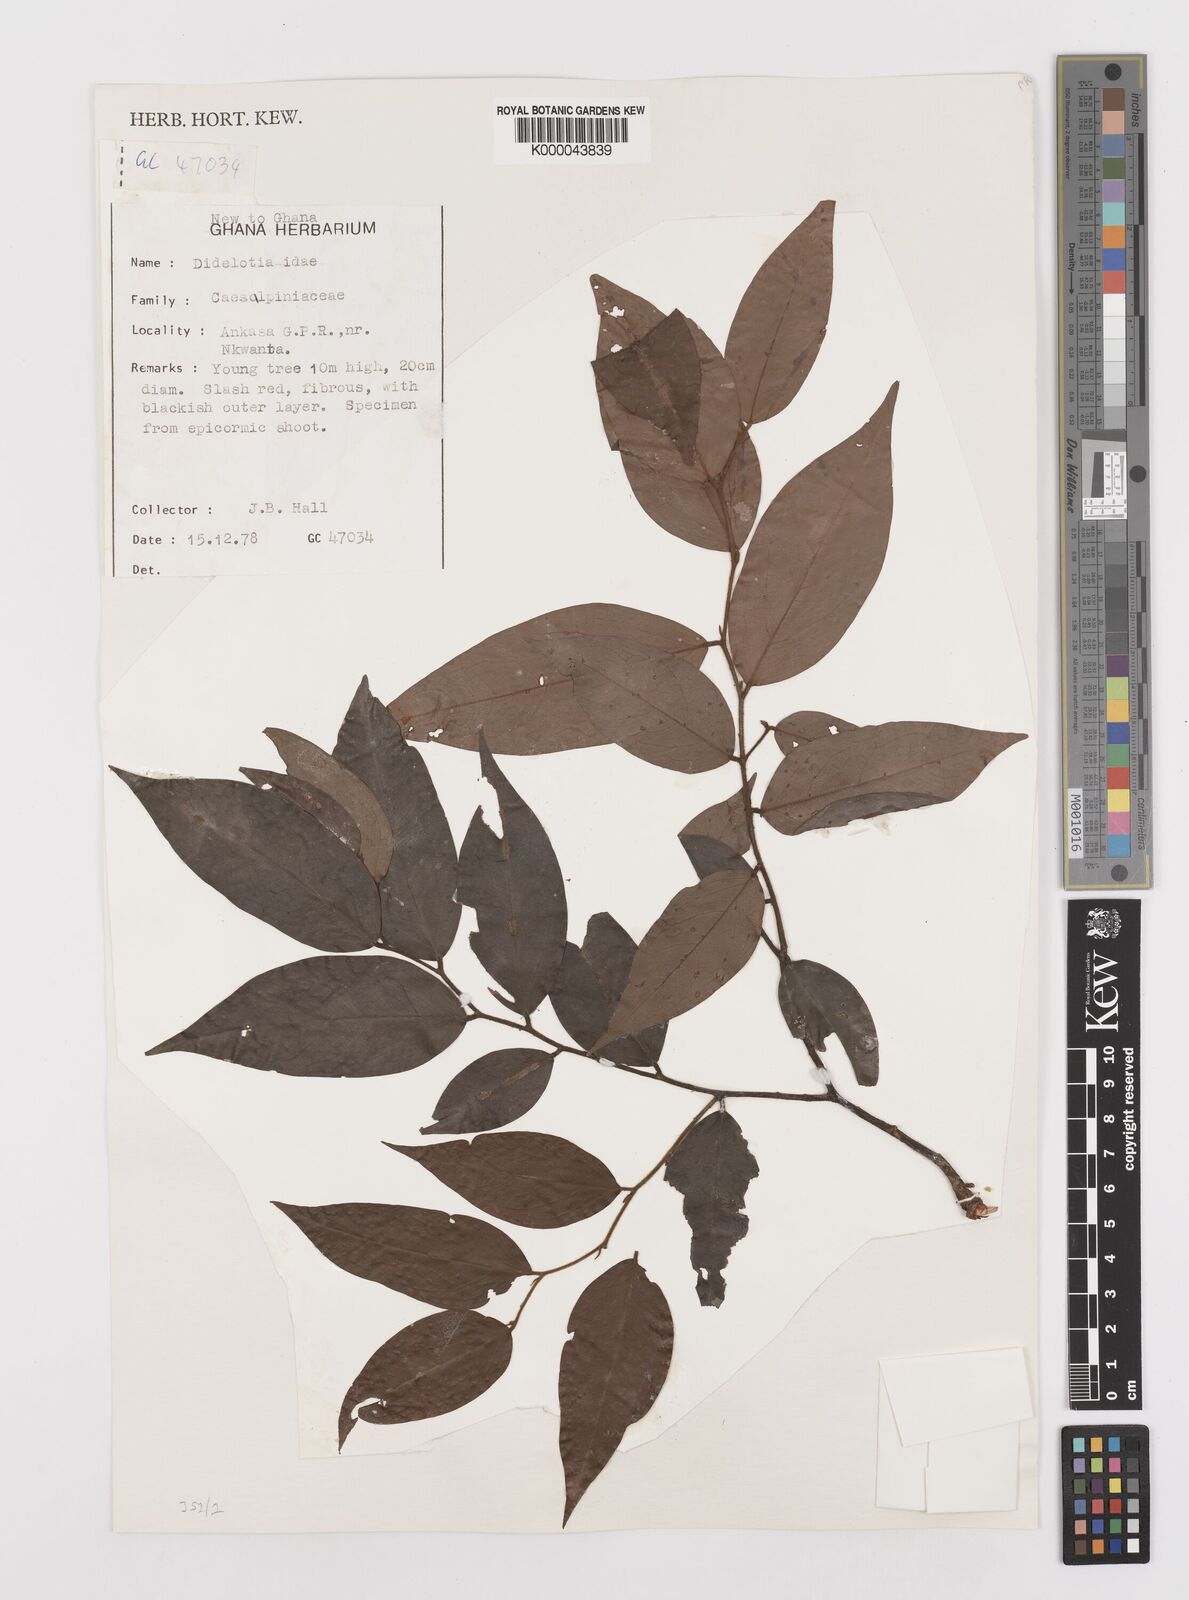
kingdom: Plantae
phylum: Tracheophyta
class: Magnoliopsida
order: Fabales
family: Fabaceae
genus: Didelotia
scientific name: Didelotia
